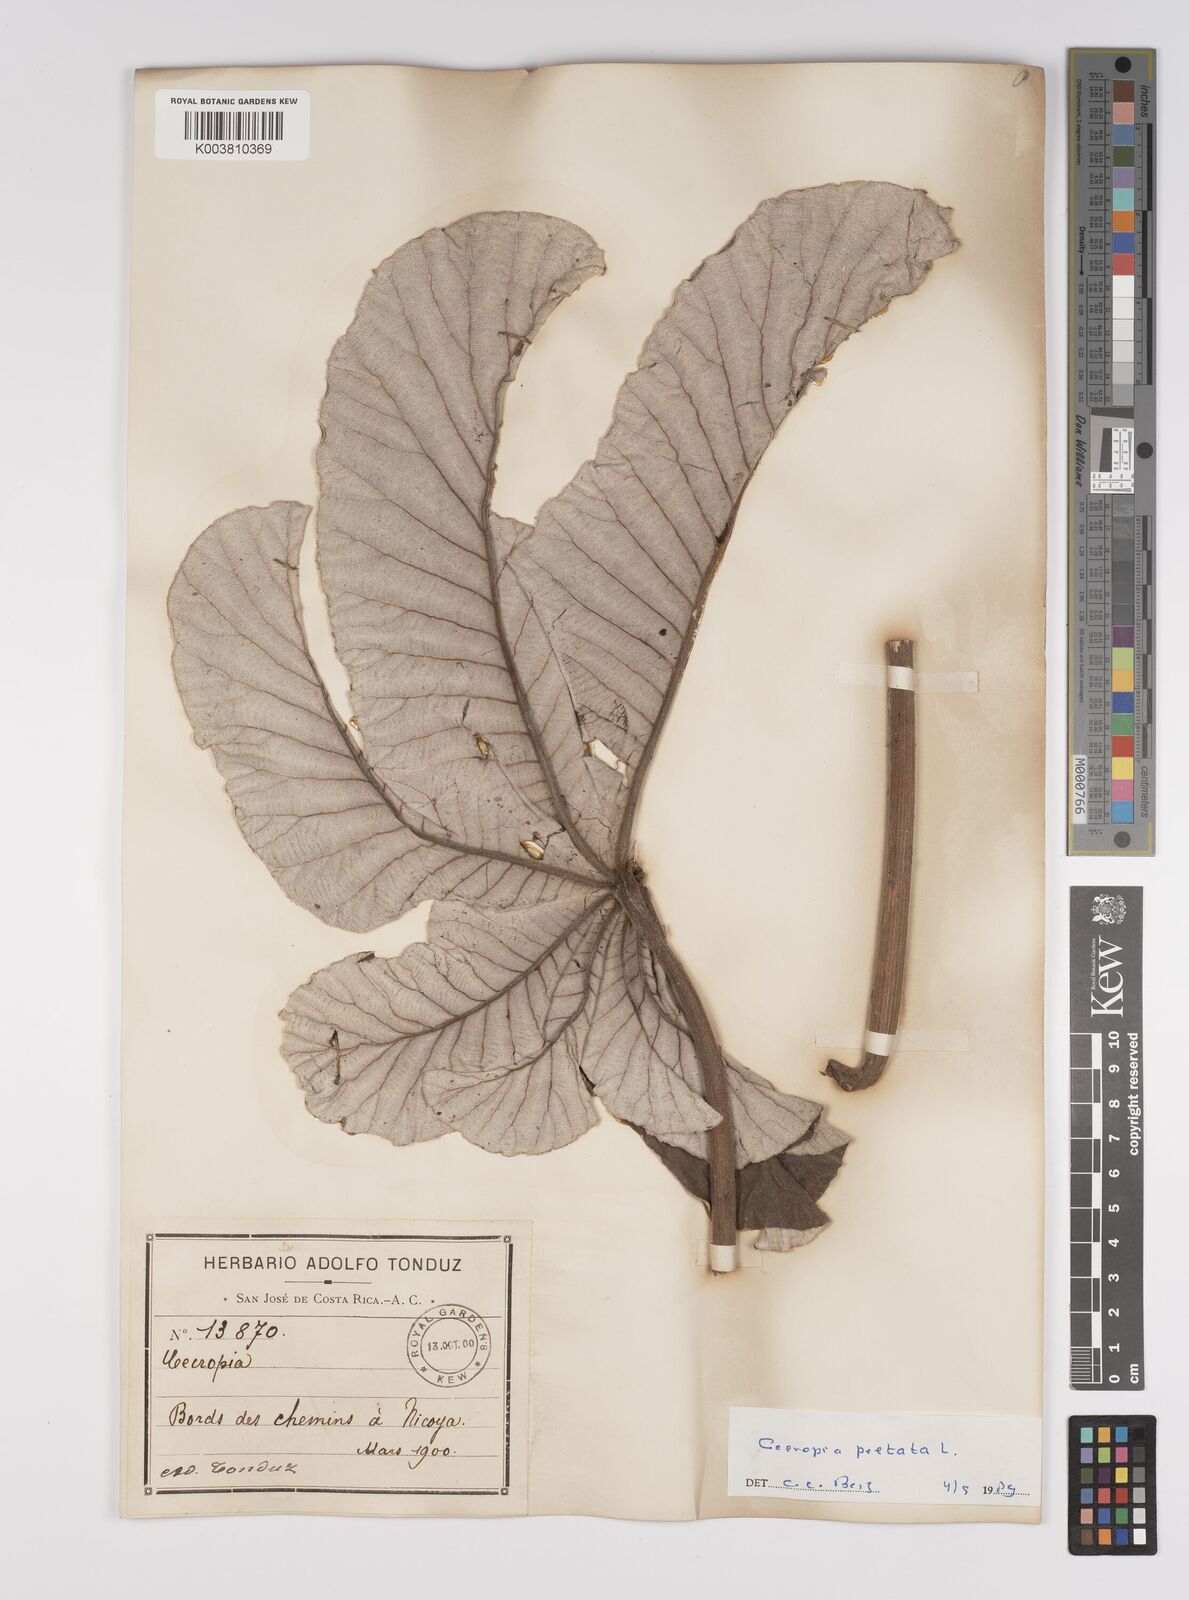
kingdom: Plantae
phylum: Tracheophyta
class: Magnoliopsida
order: Rosales
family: Urticaceae
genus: Cecropia
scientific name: Cecropia
